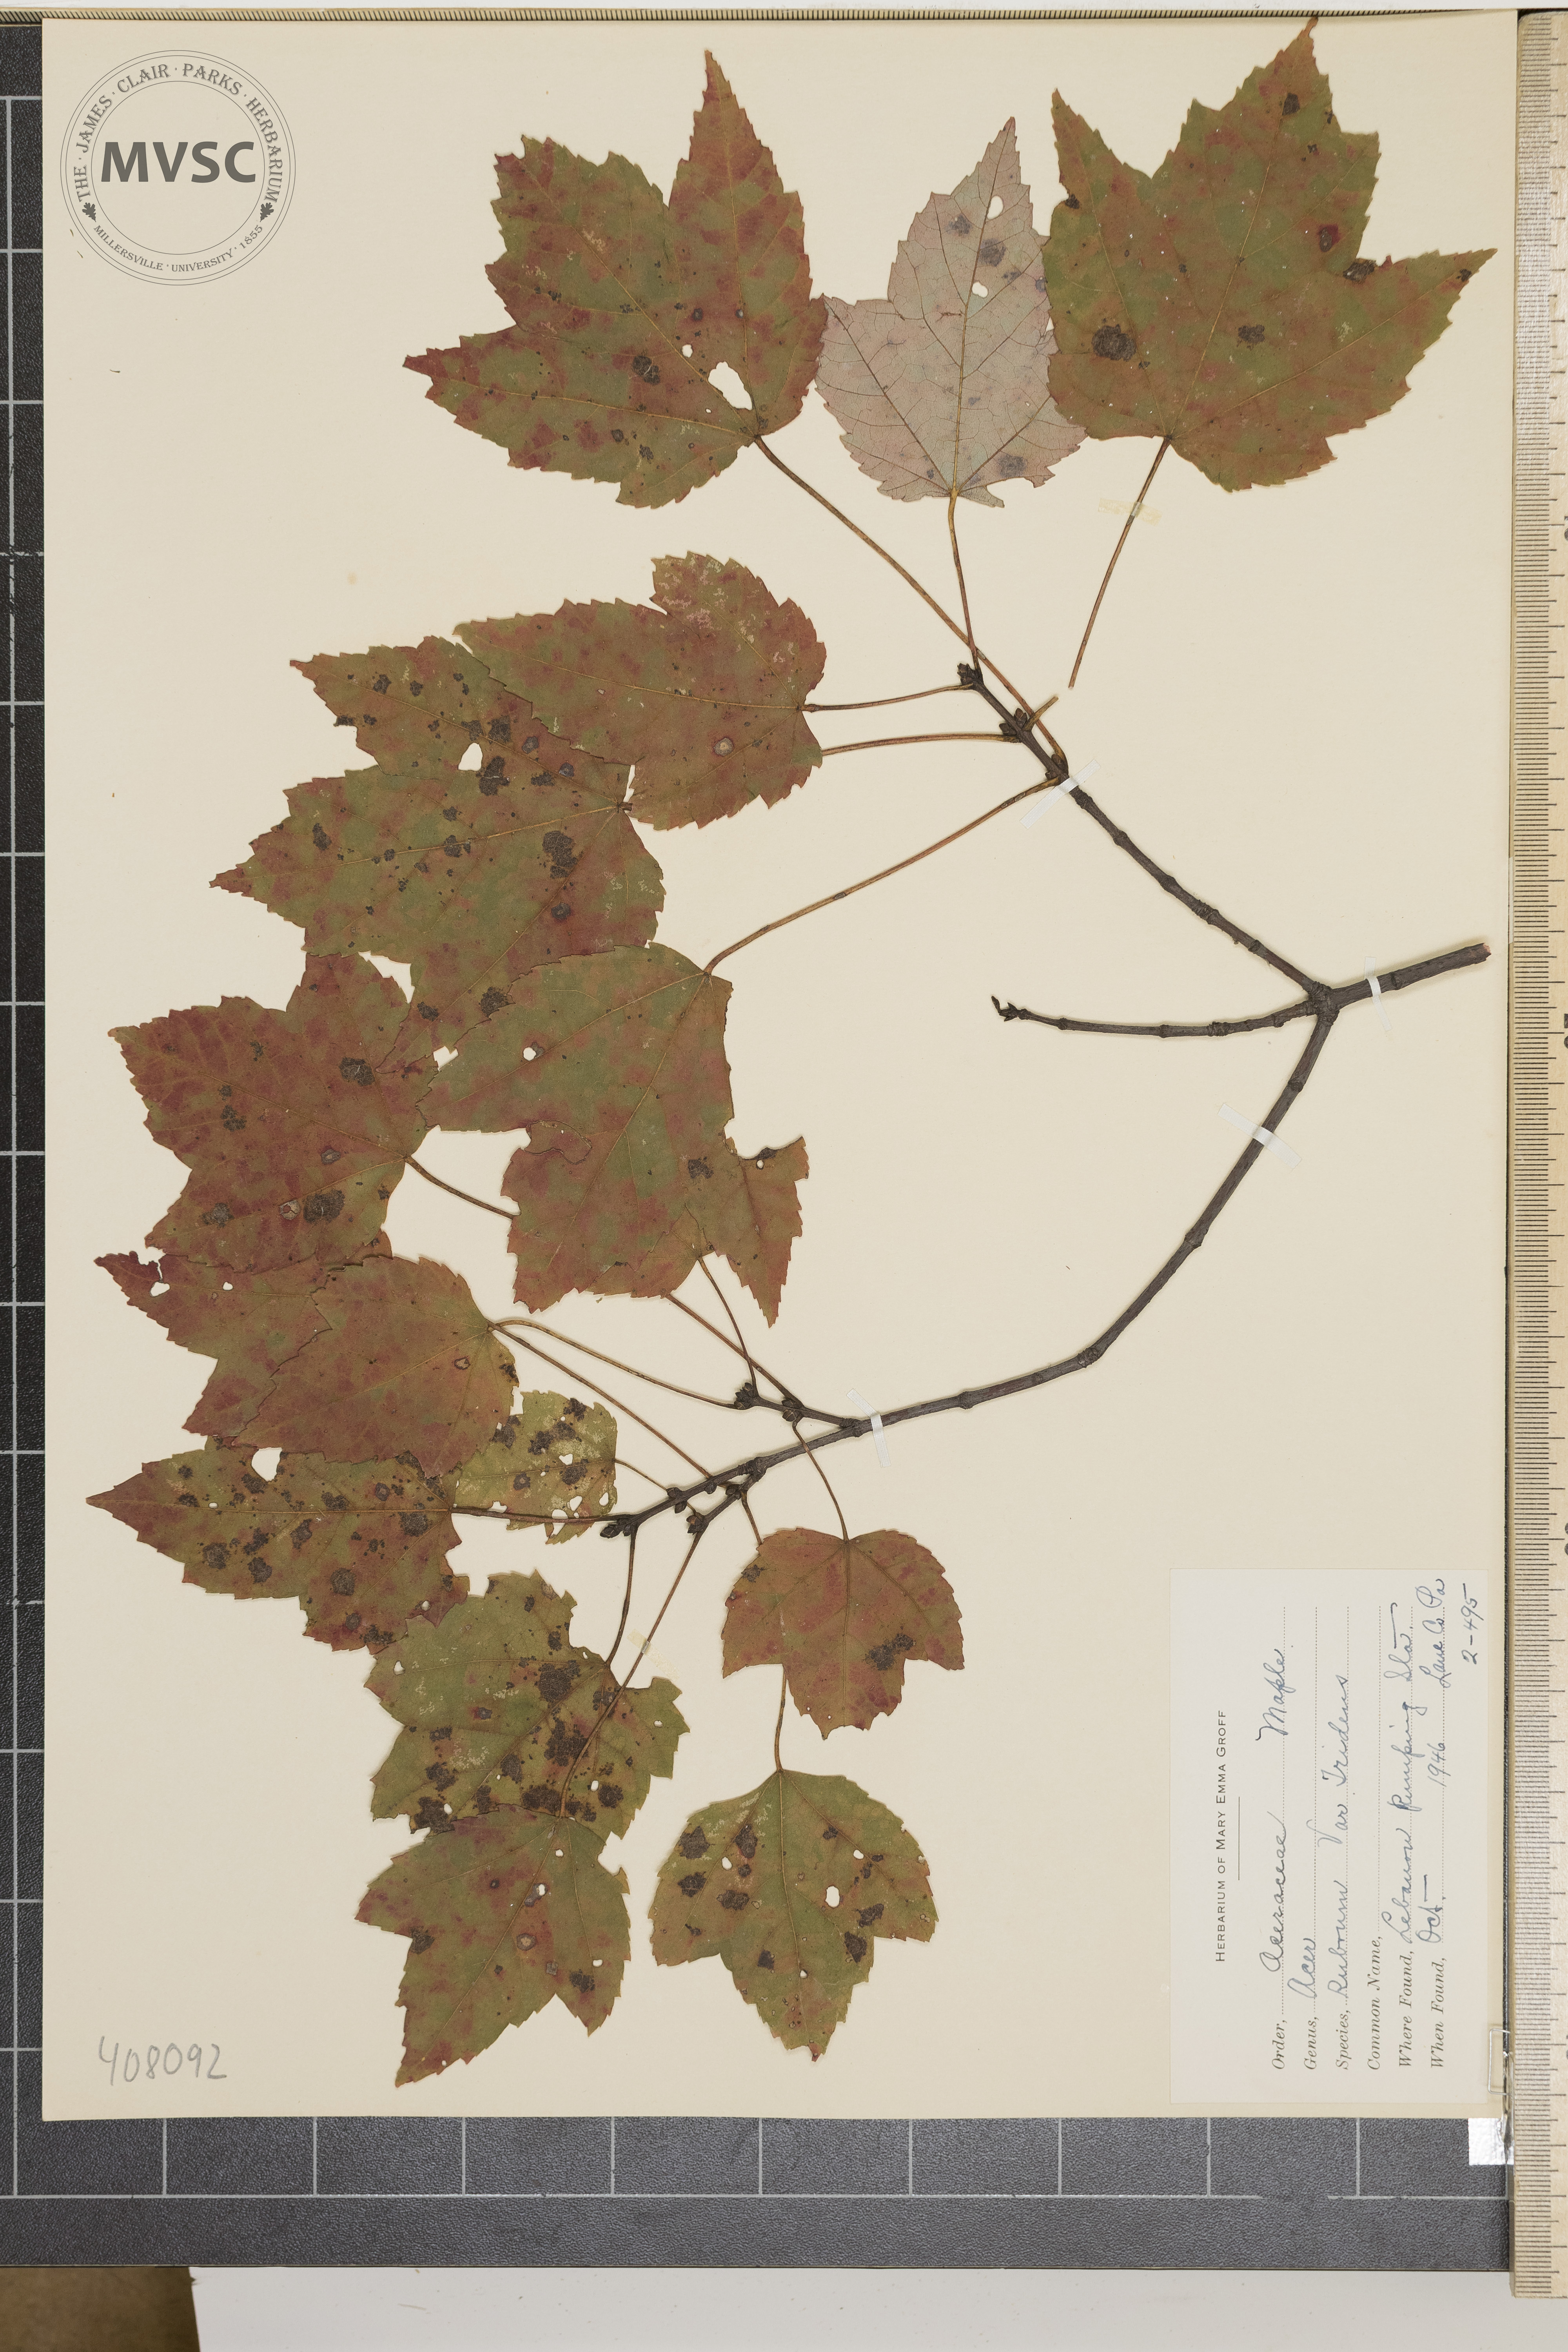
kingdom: Plantae
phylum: Tracheophyta
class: Magnoliopsida
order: Sapindales
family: Sapindaceae
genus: Acer
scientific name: Acer rubrum
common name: Red maple
